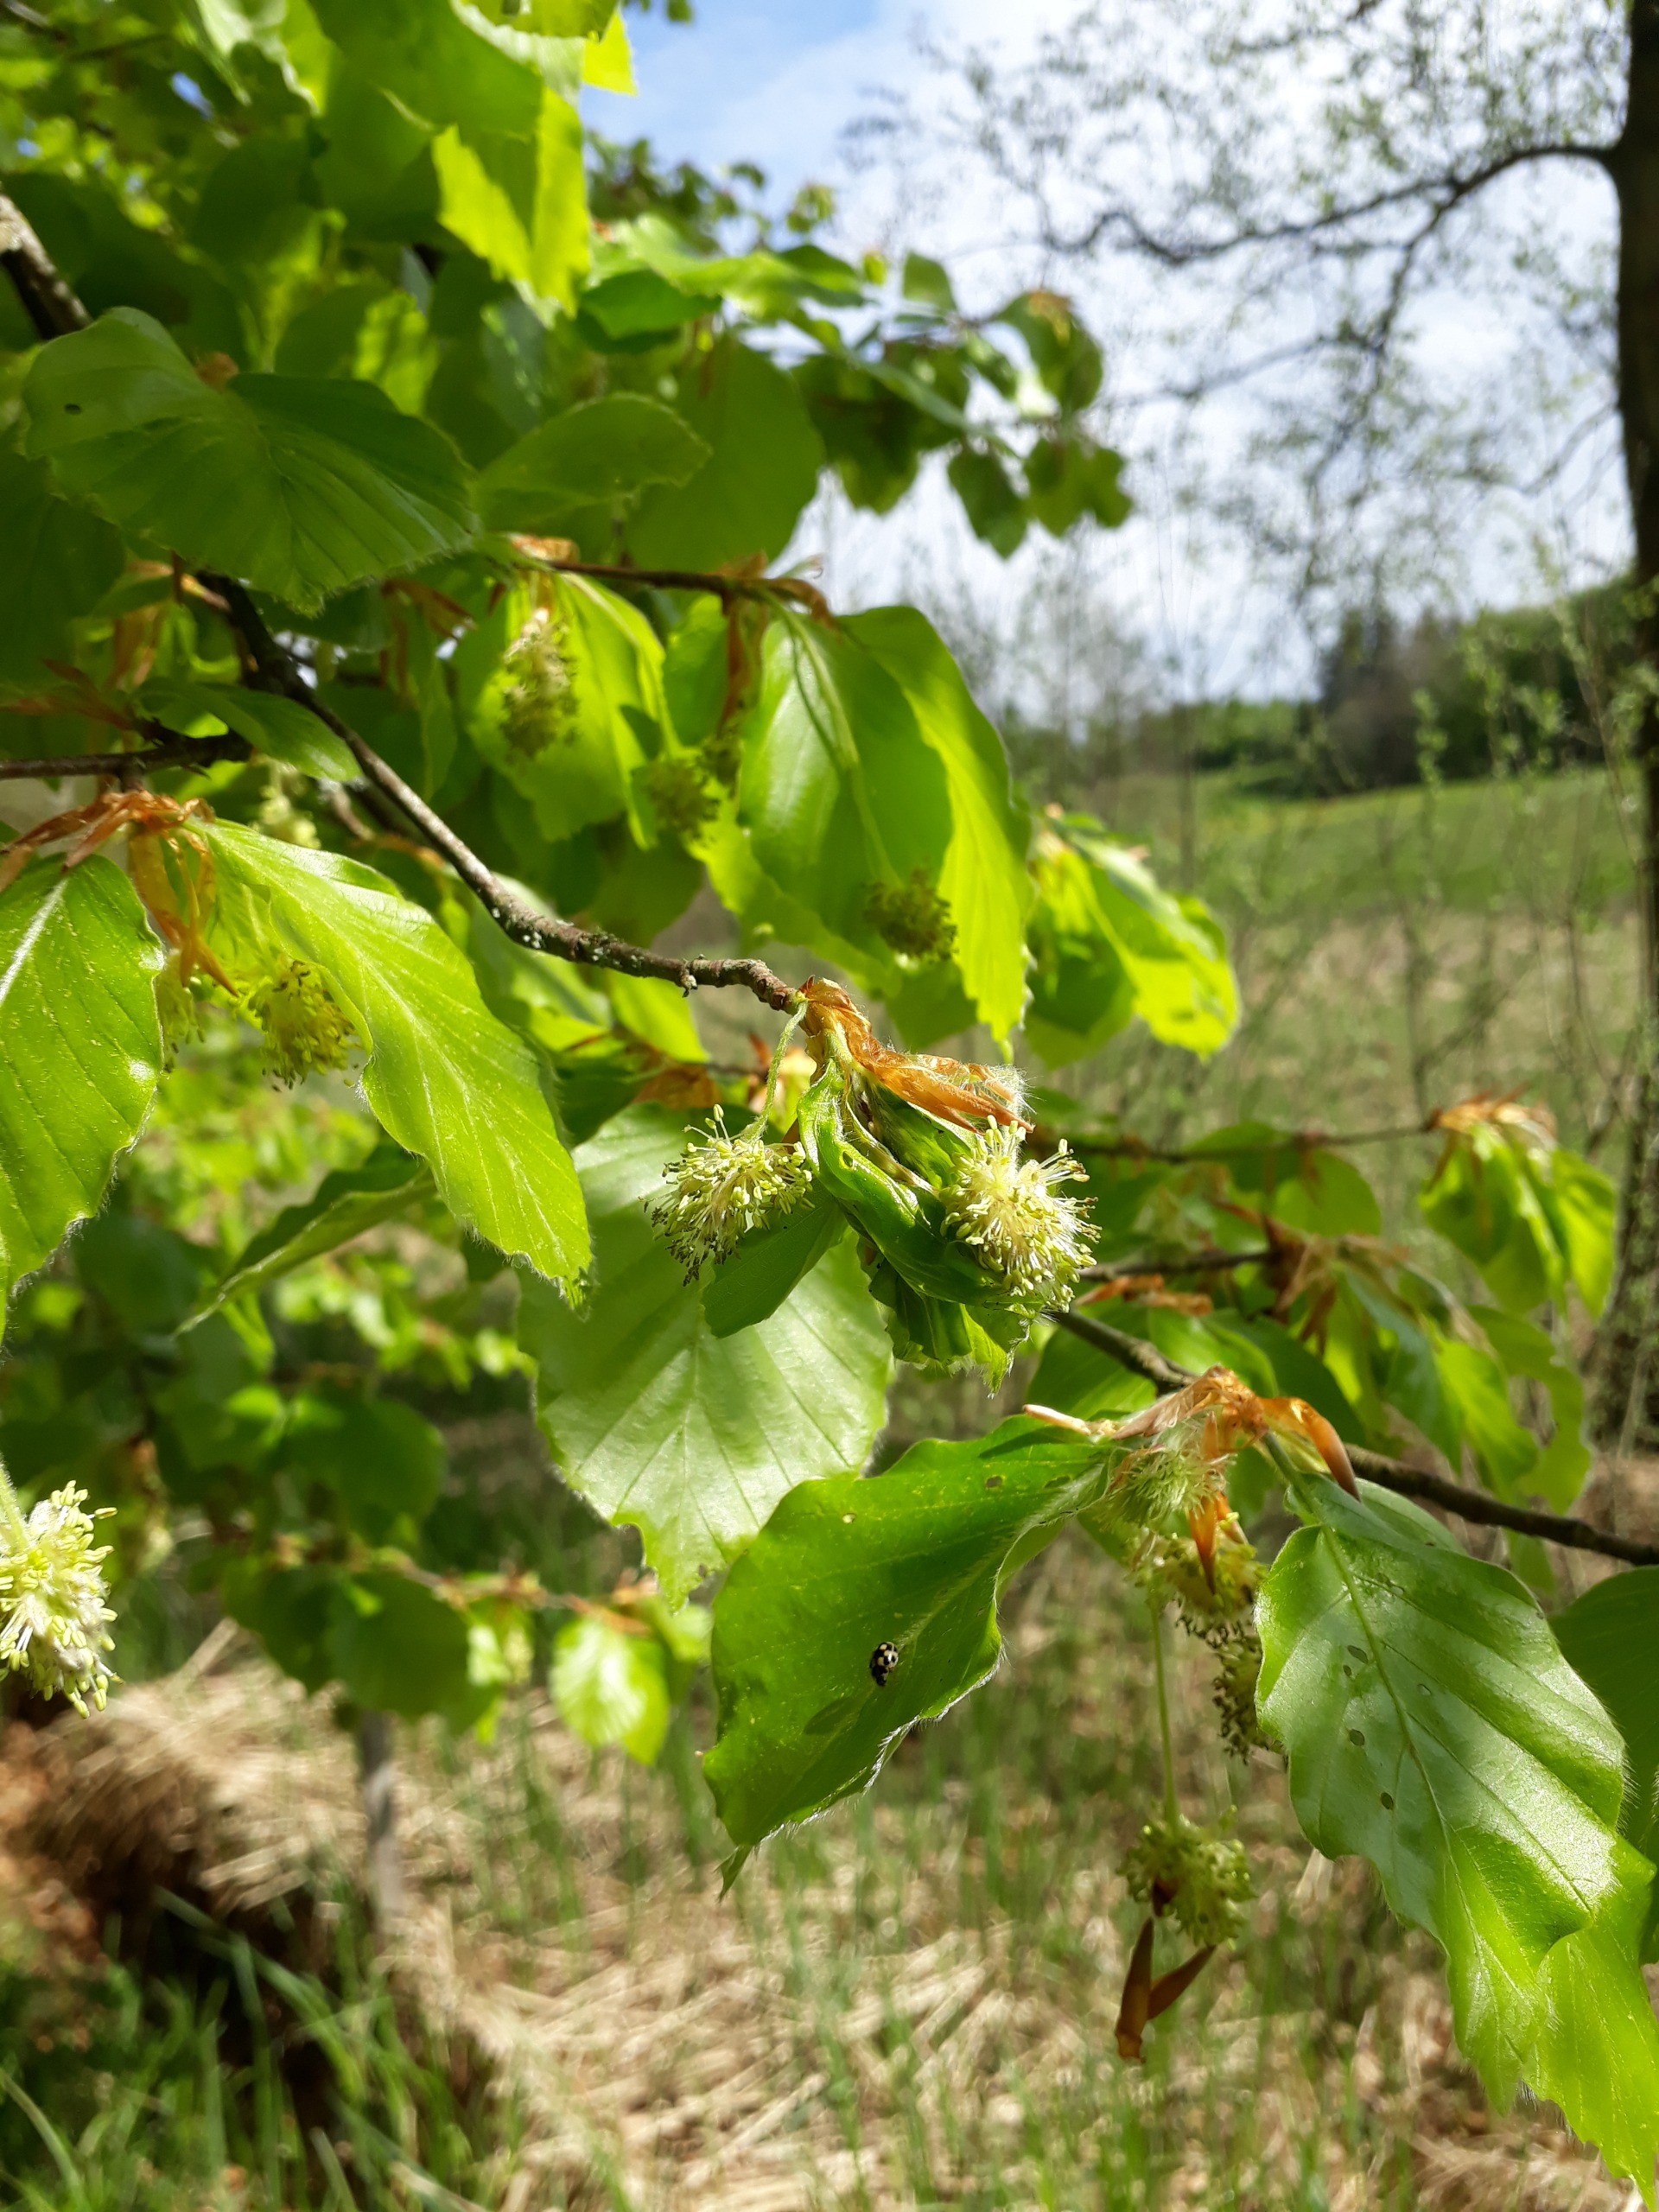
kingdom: Plantae
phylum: Tracheophyta
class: Magnoliopsida
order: Fagales
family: Fagaceae
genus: Fagus
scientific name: Fagus sylvatica
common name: Bøg
